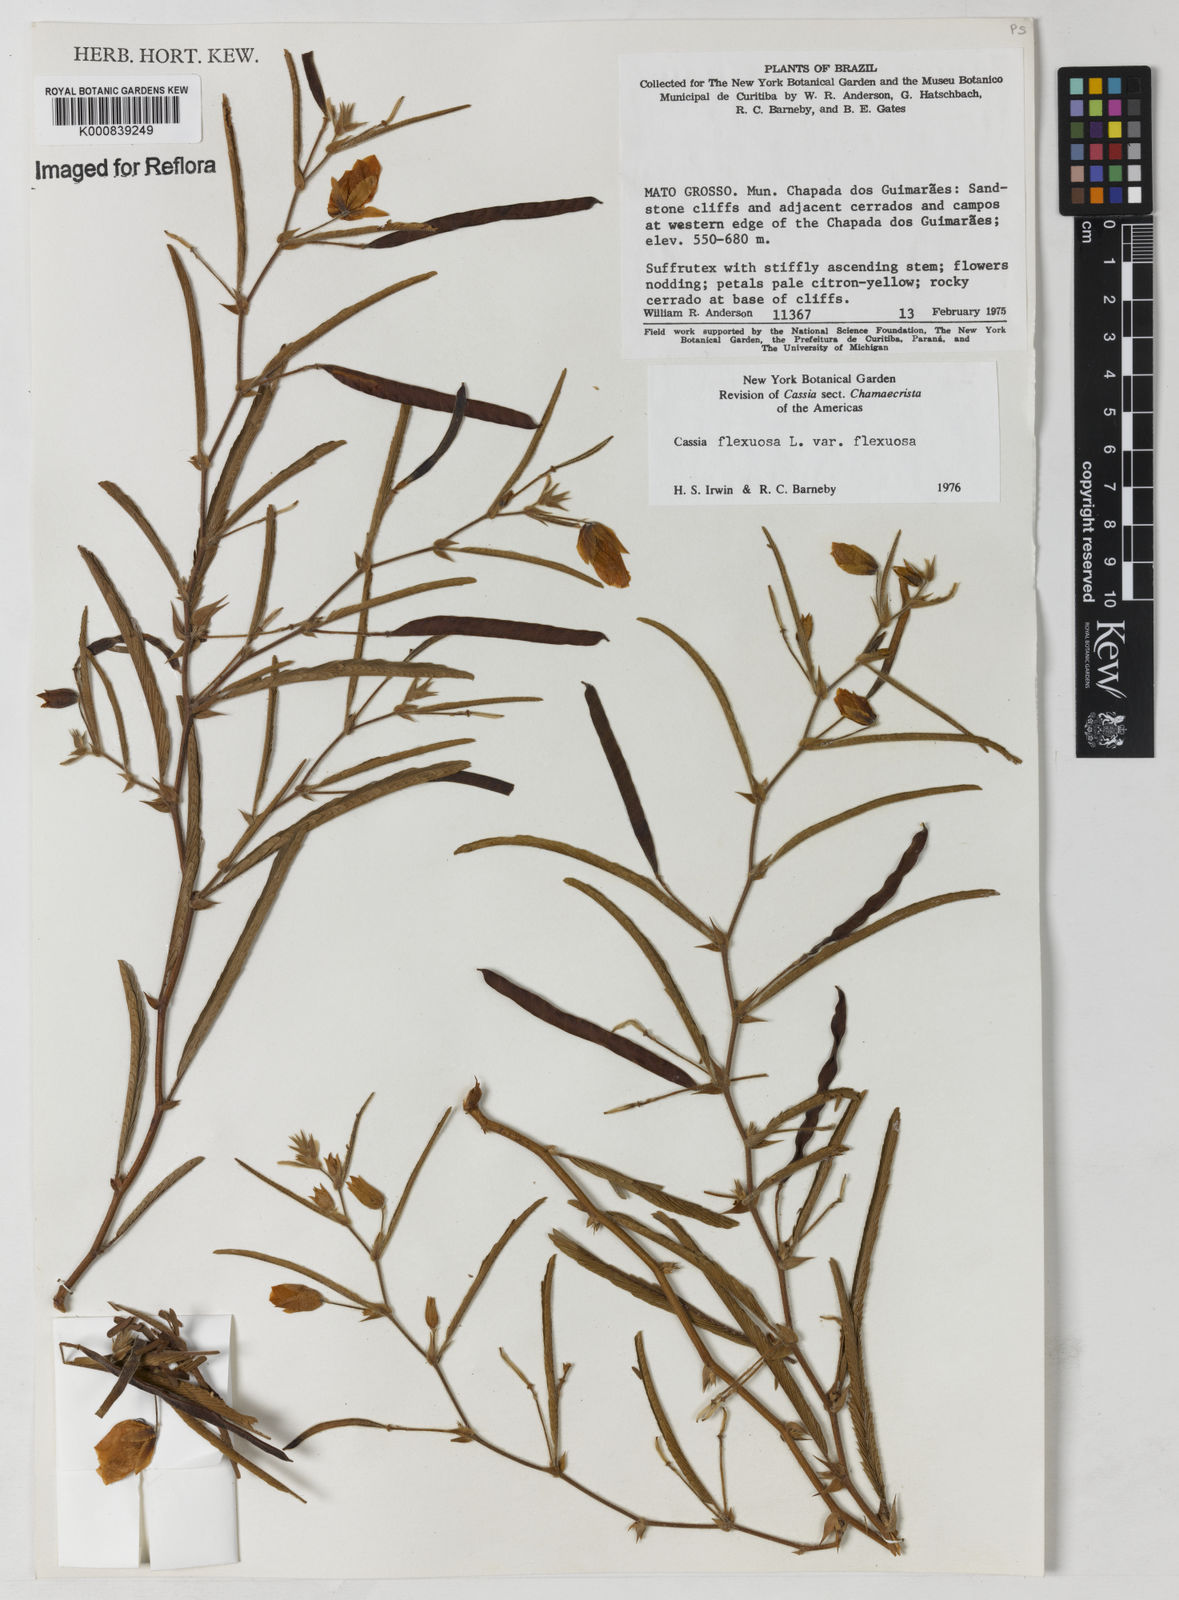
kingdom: Plantae
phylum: Tracheophyta
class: Magnoliopsida
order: Fabales
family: Fabaceae
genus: Chamaecrista
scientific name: Chamaecrista flexuosa
